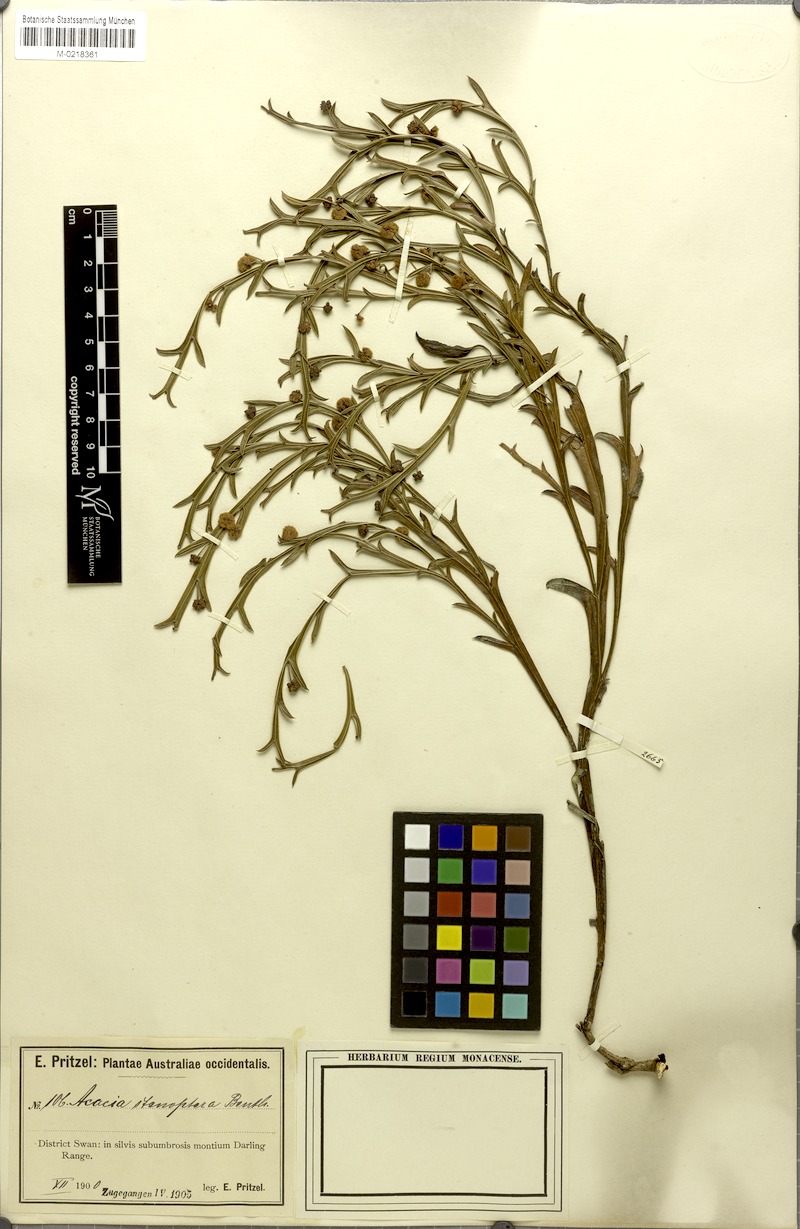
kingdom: Plantae
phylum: Tracheophyta
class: Magnoliopsida
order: Fabales
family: Fabaceae
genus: Acacia
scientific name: Acacia stenoptera
